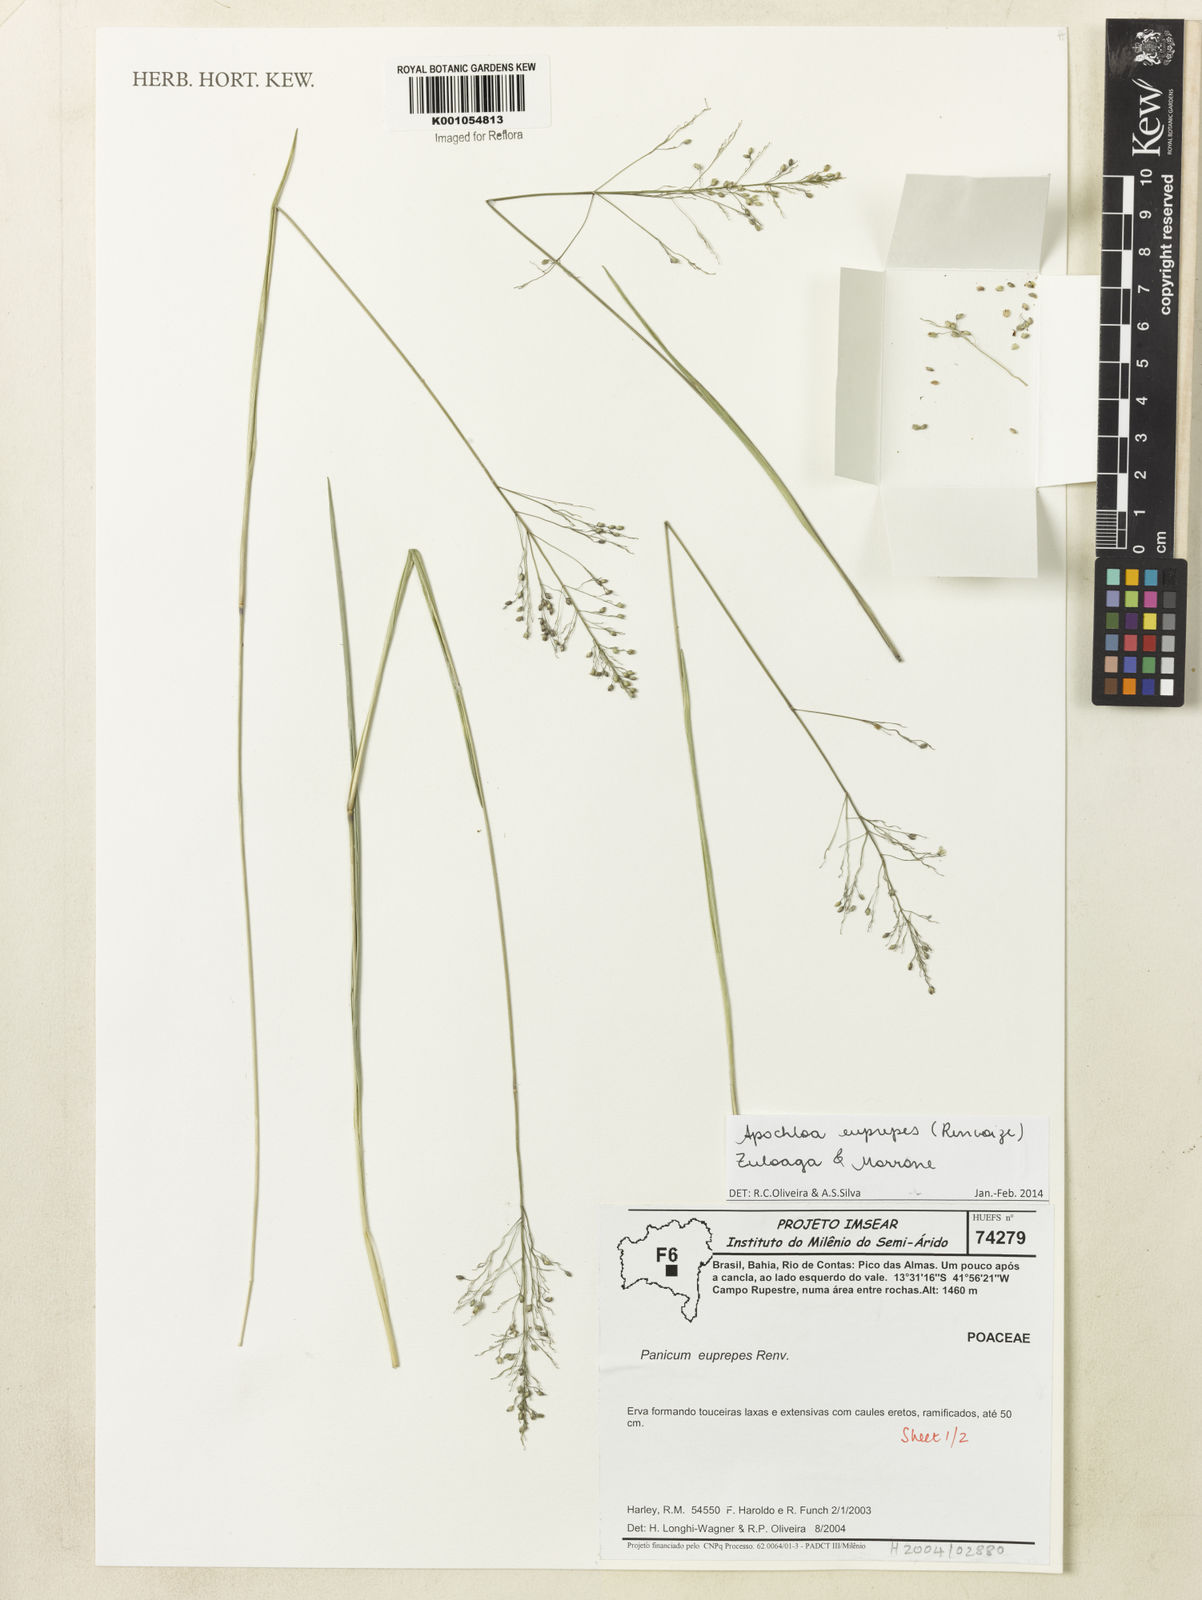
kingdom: Plantae
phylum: Tracheophyta
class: Liliopsida
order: Poales
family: Poaceae
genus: Apochloa
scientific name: Apochloa euprepes
